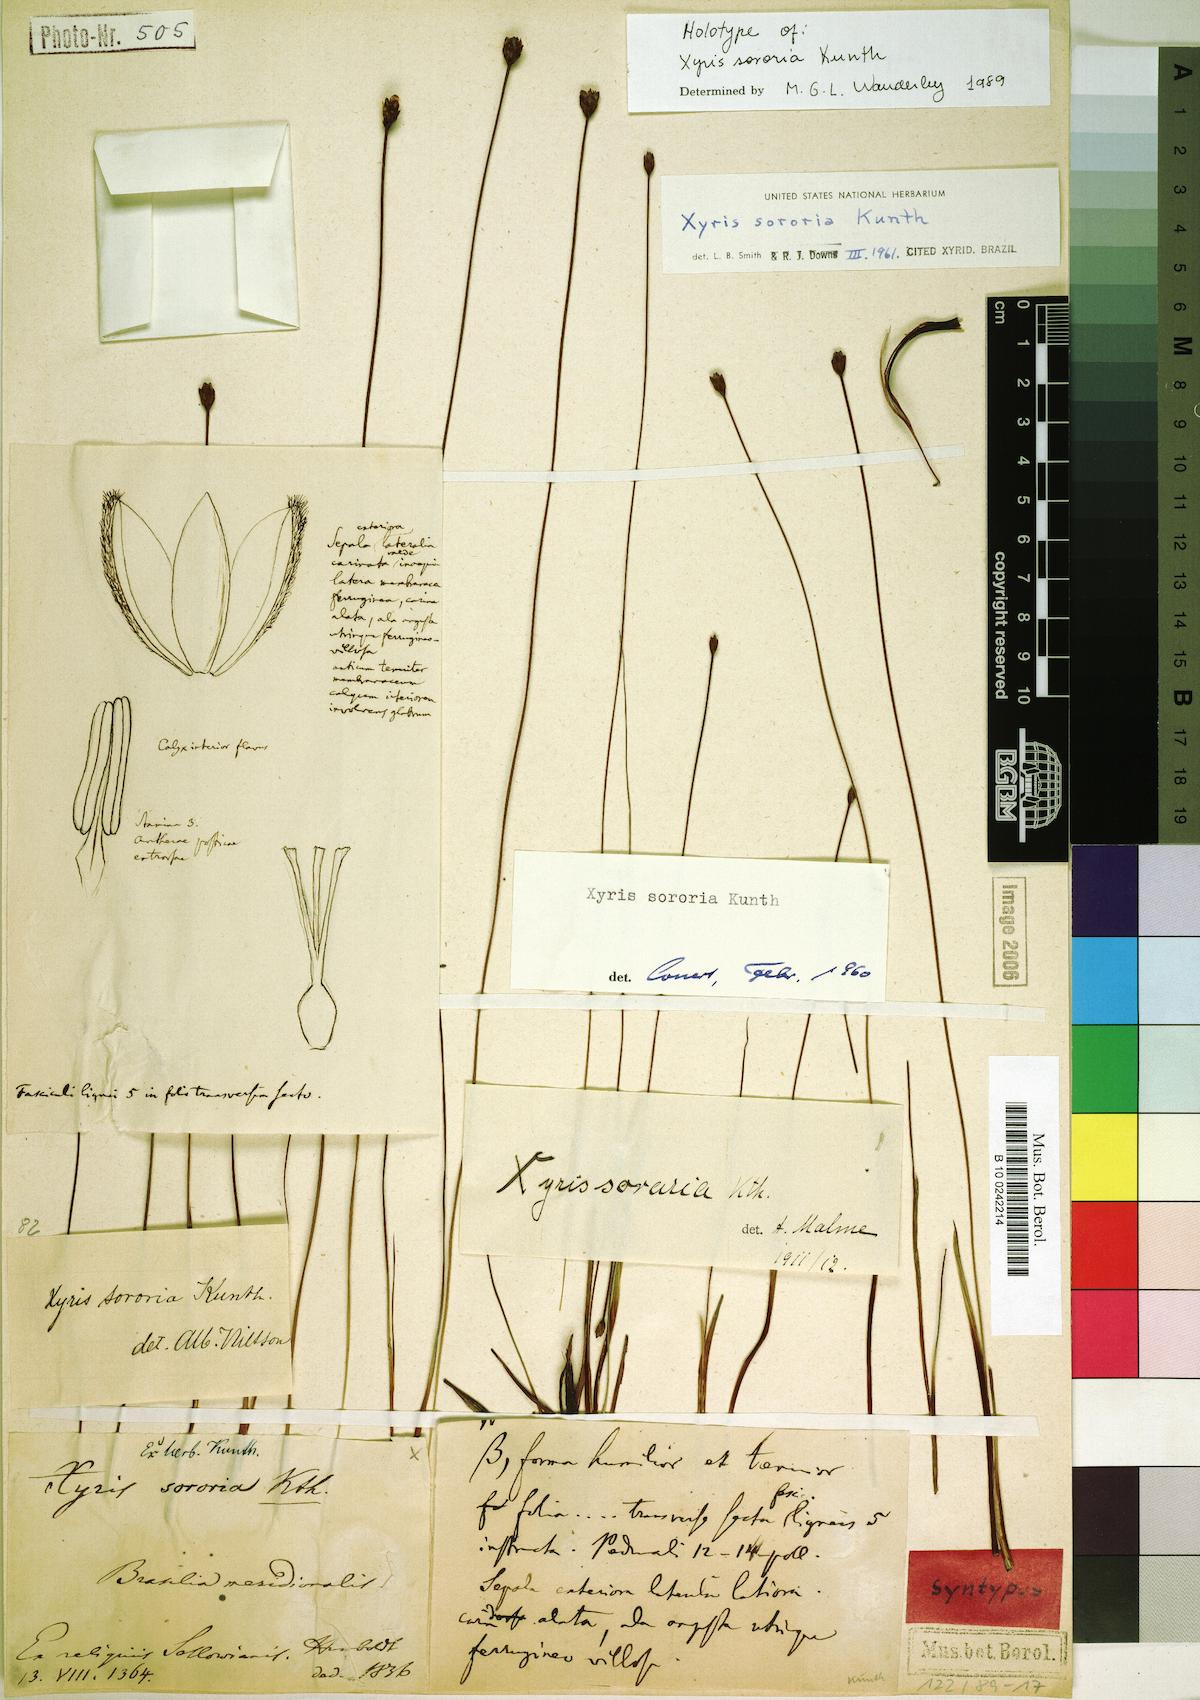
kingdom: Plantae
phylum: Tracheophyta
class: Liliopsida
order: Poales
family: Xyridaceae
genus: Xyris
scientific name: Xyris sororia
